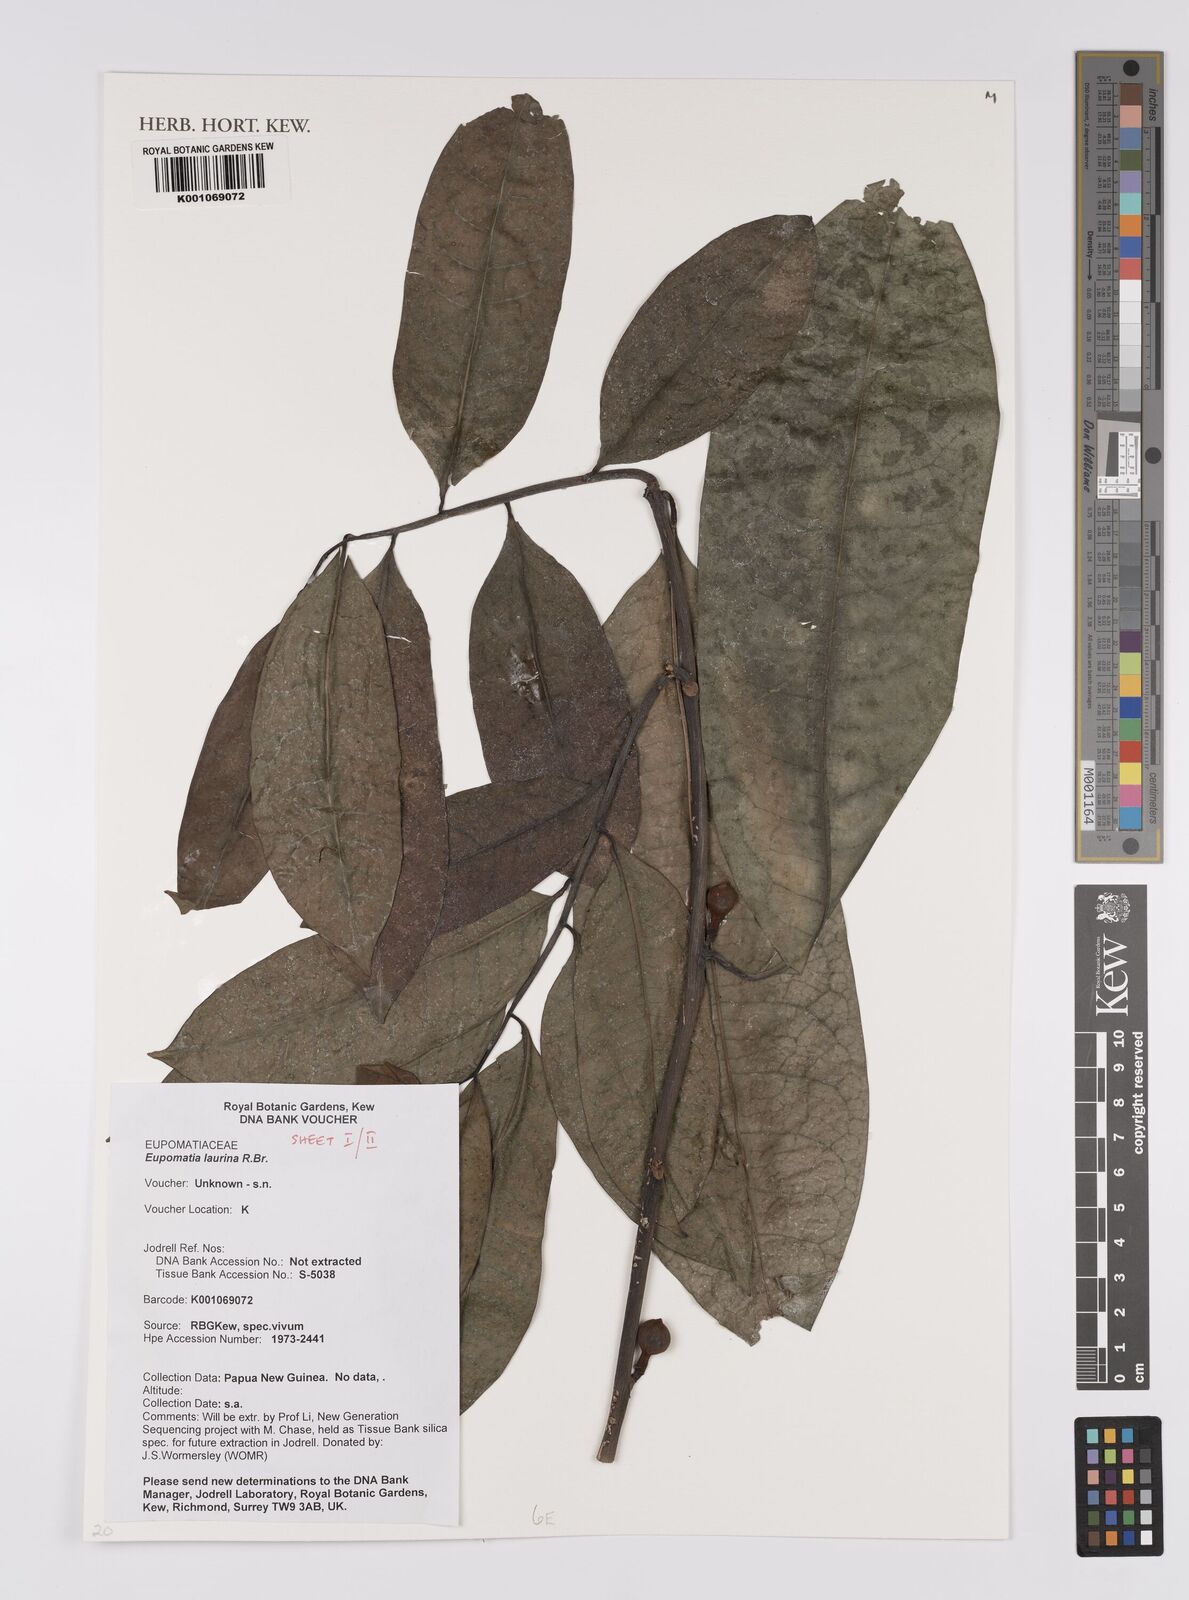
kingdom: Plantae
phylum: Tracheophyta
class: Magnoliopsida
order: Magnoliales
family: Eupomatiaceae
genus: Eupomatia
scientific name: Eupomatia laurina
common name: Bolwarra
